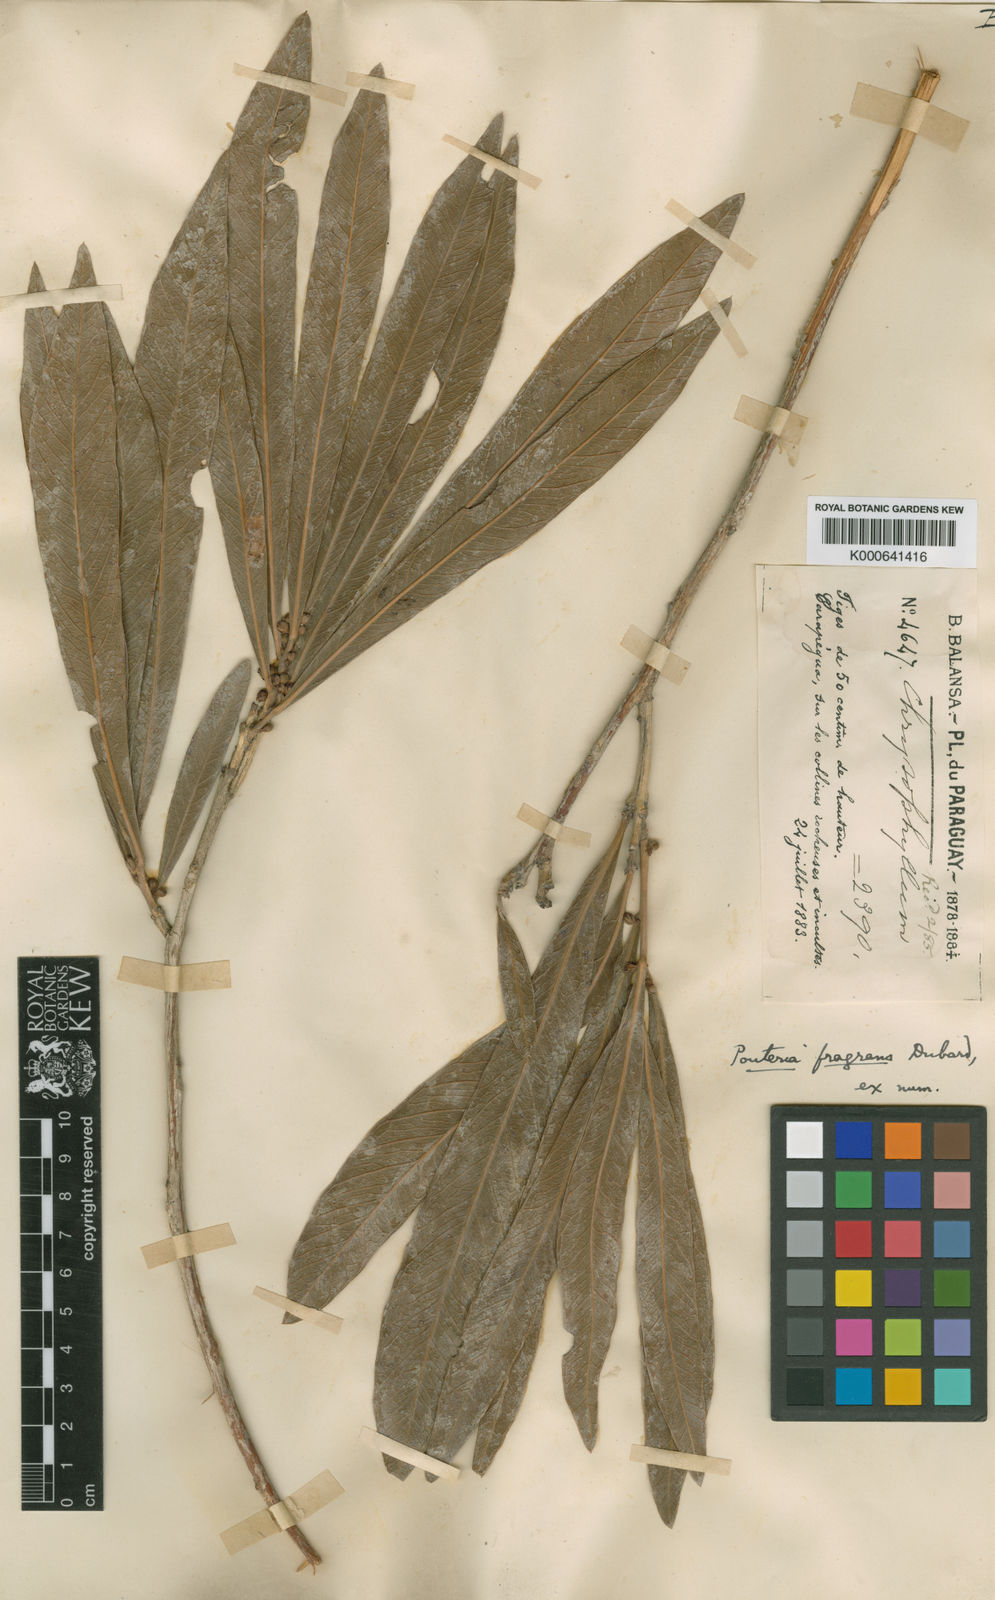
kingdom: Plantae
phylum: Tracheophyta
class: Magnoliopsida
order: Ericales
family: Sapotaceae
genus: Pouteria
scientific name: Pouteria fragrans
